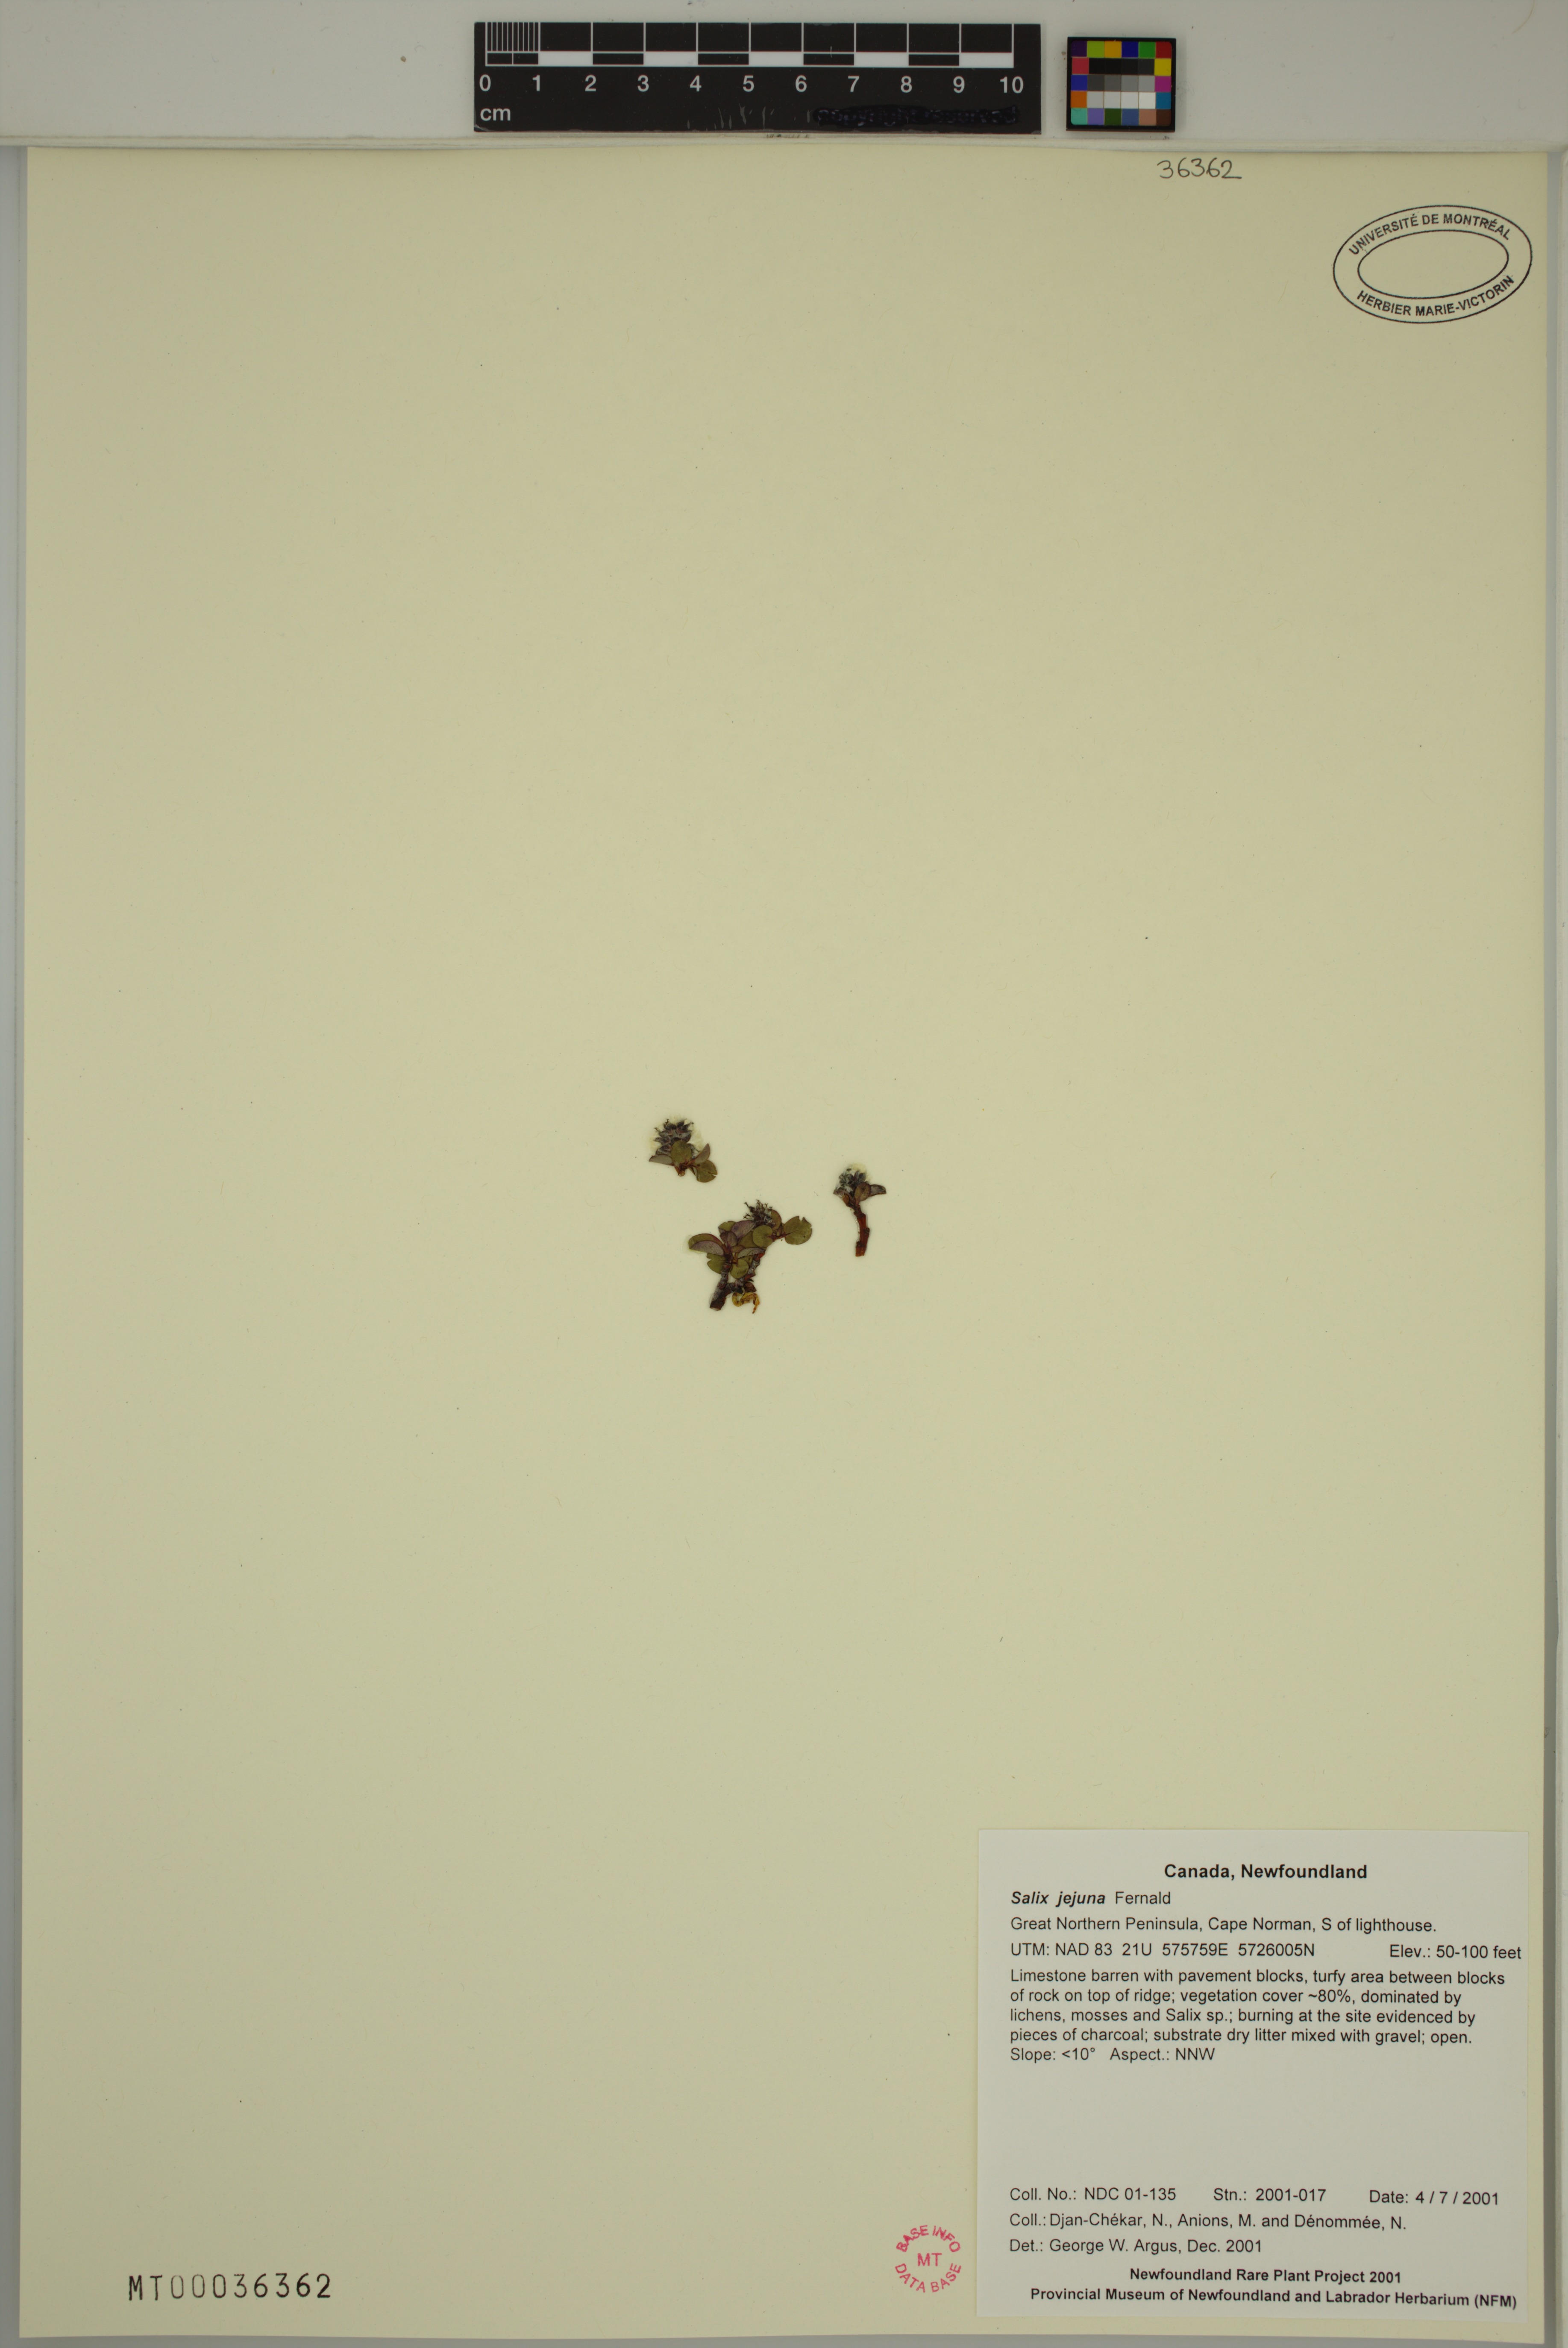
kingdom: Plantae
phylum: Tracheophyta
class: Magnoliopsida
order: Malpighiales
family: Salicaceae
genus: Salix
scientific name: Salix jejuna
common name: Belle isle dwarf willow
